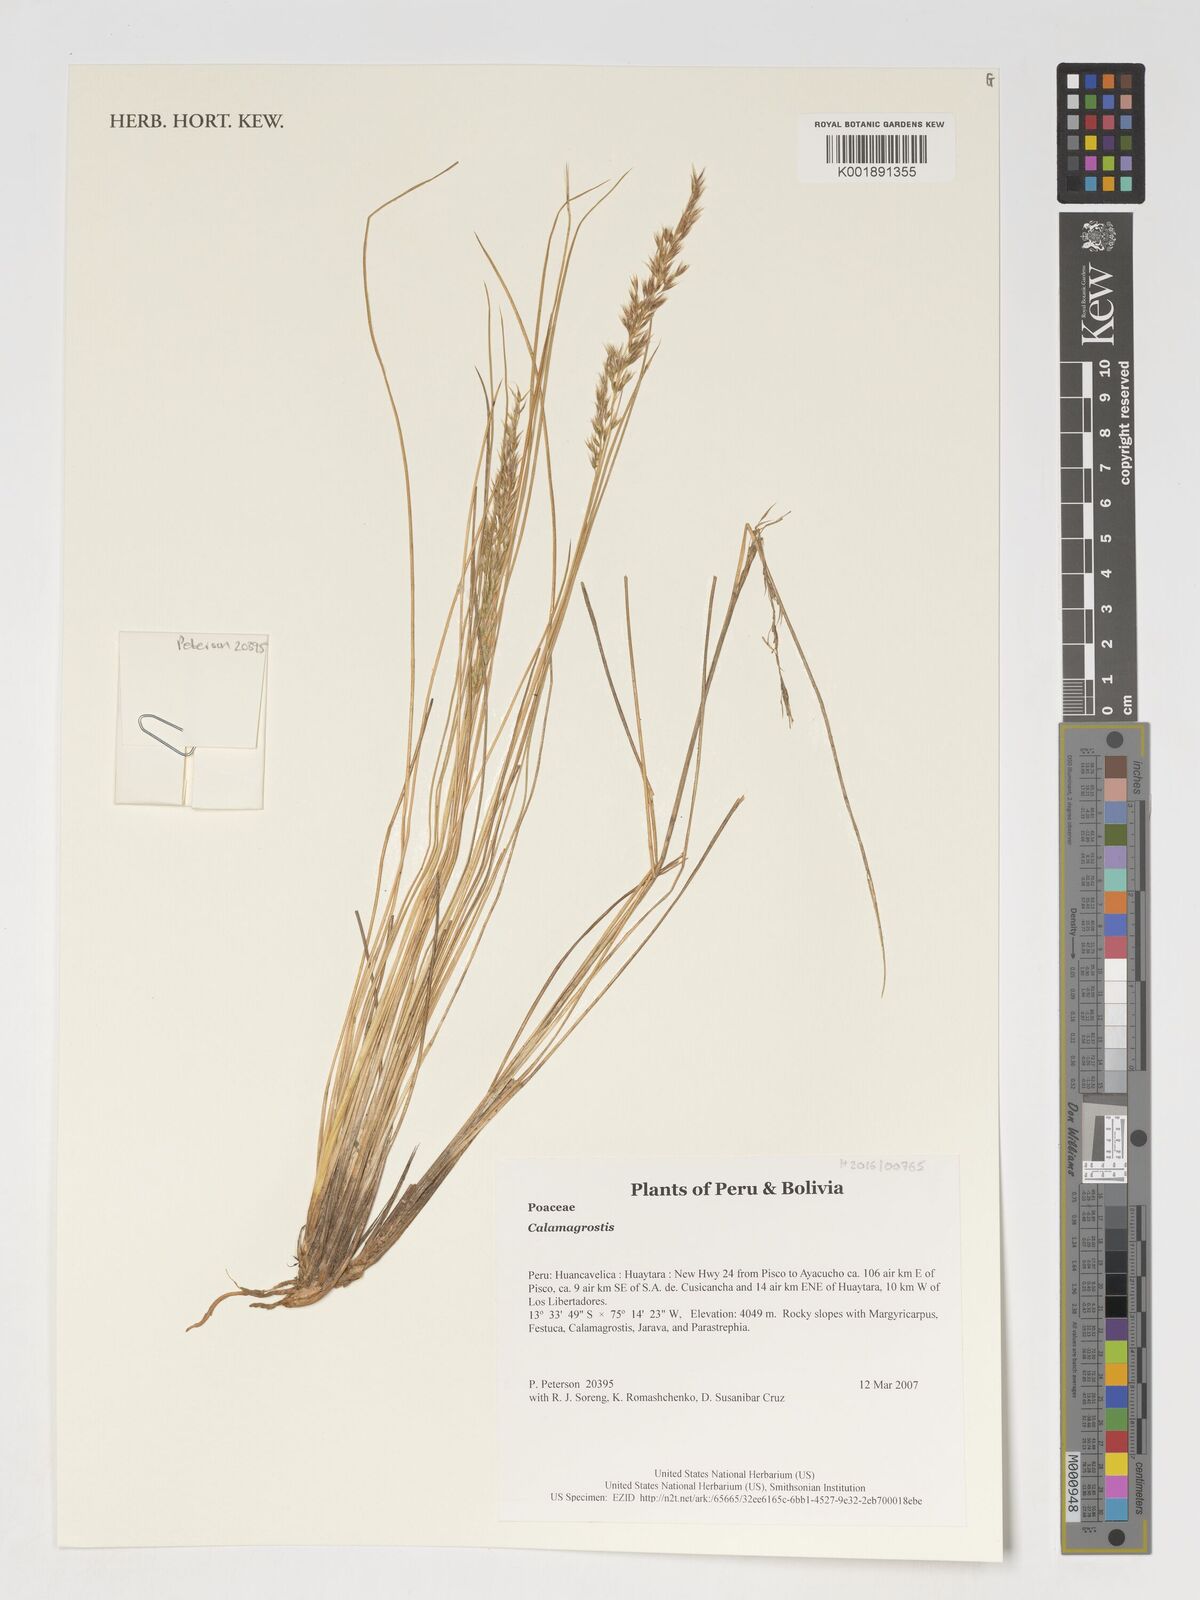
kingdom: Plantae
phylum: Tracheophyta
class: Liliopsida
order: Poales
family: Poaceae
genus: Calamagrostis
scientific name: Calamagrostis
